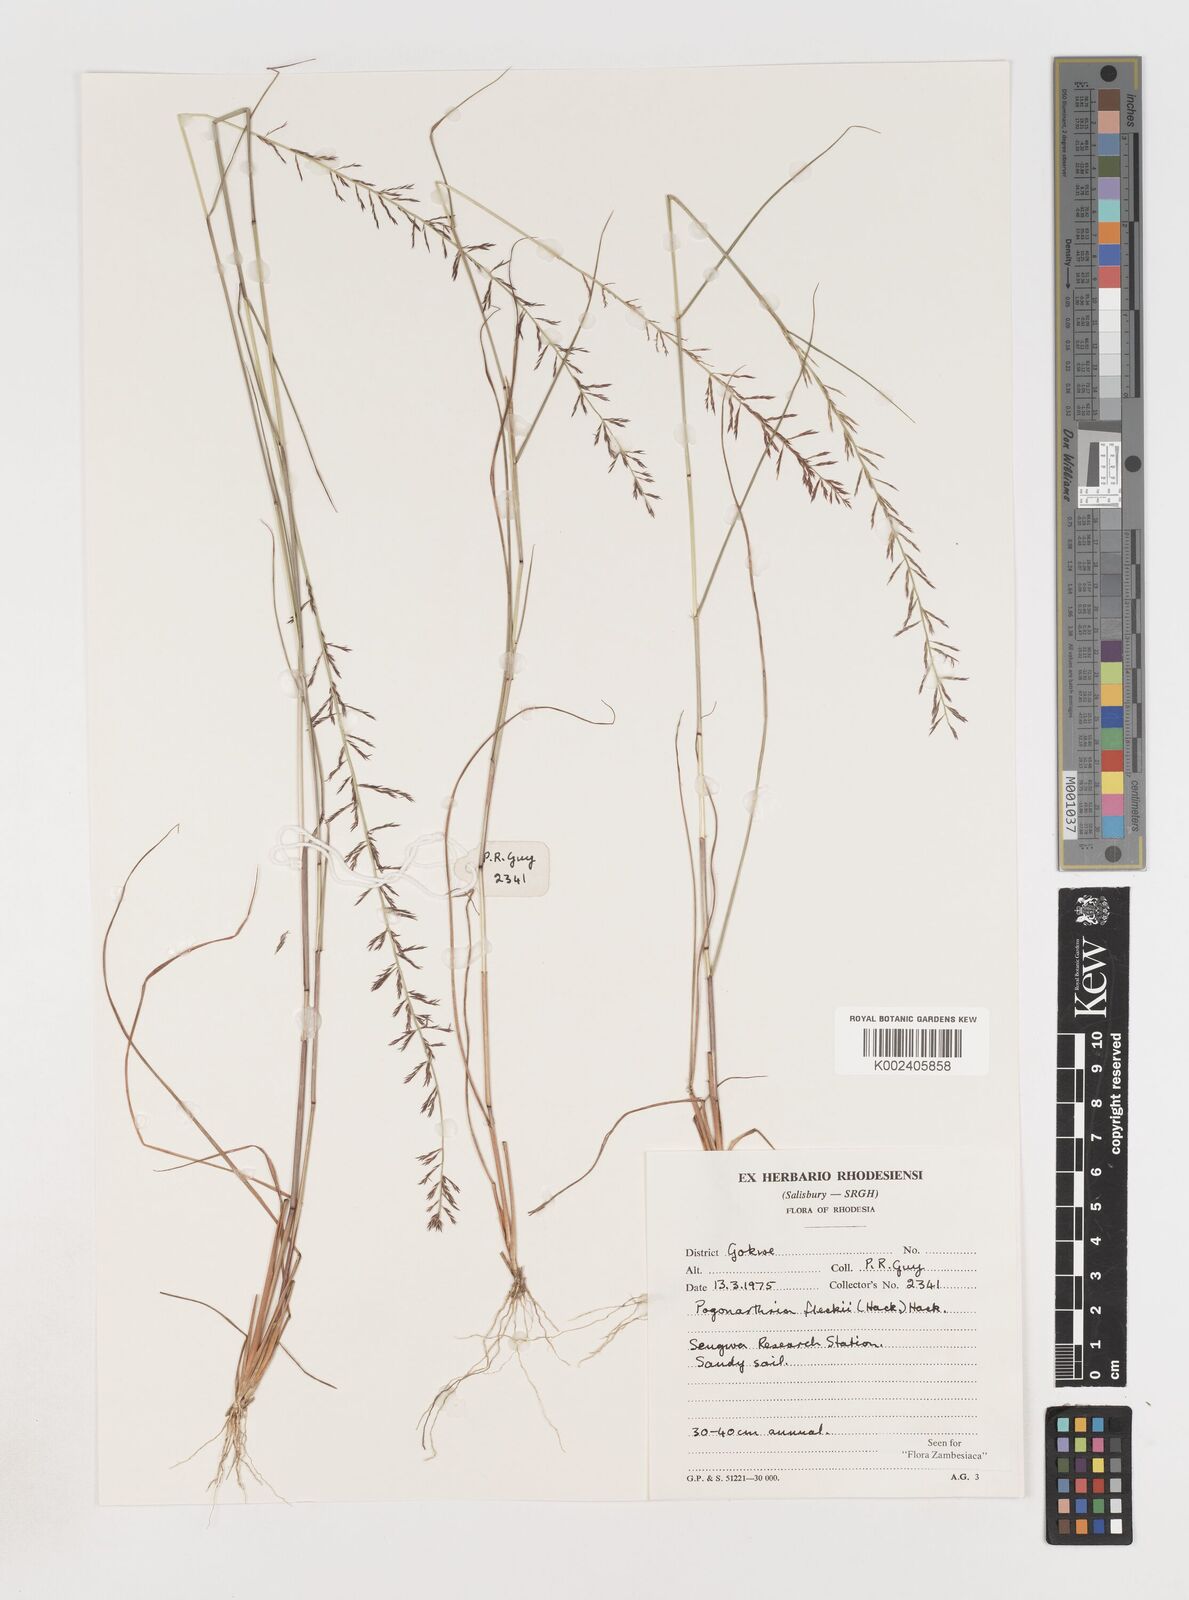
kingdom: Plantae
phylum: Tracheophyta
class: Liliopsida
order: Poales
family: Poaceae
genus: Pogonarthria
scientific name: Pogonarthria fleckii
